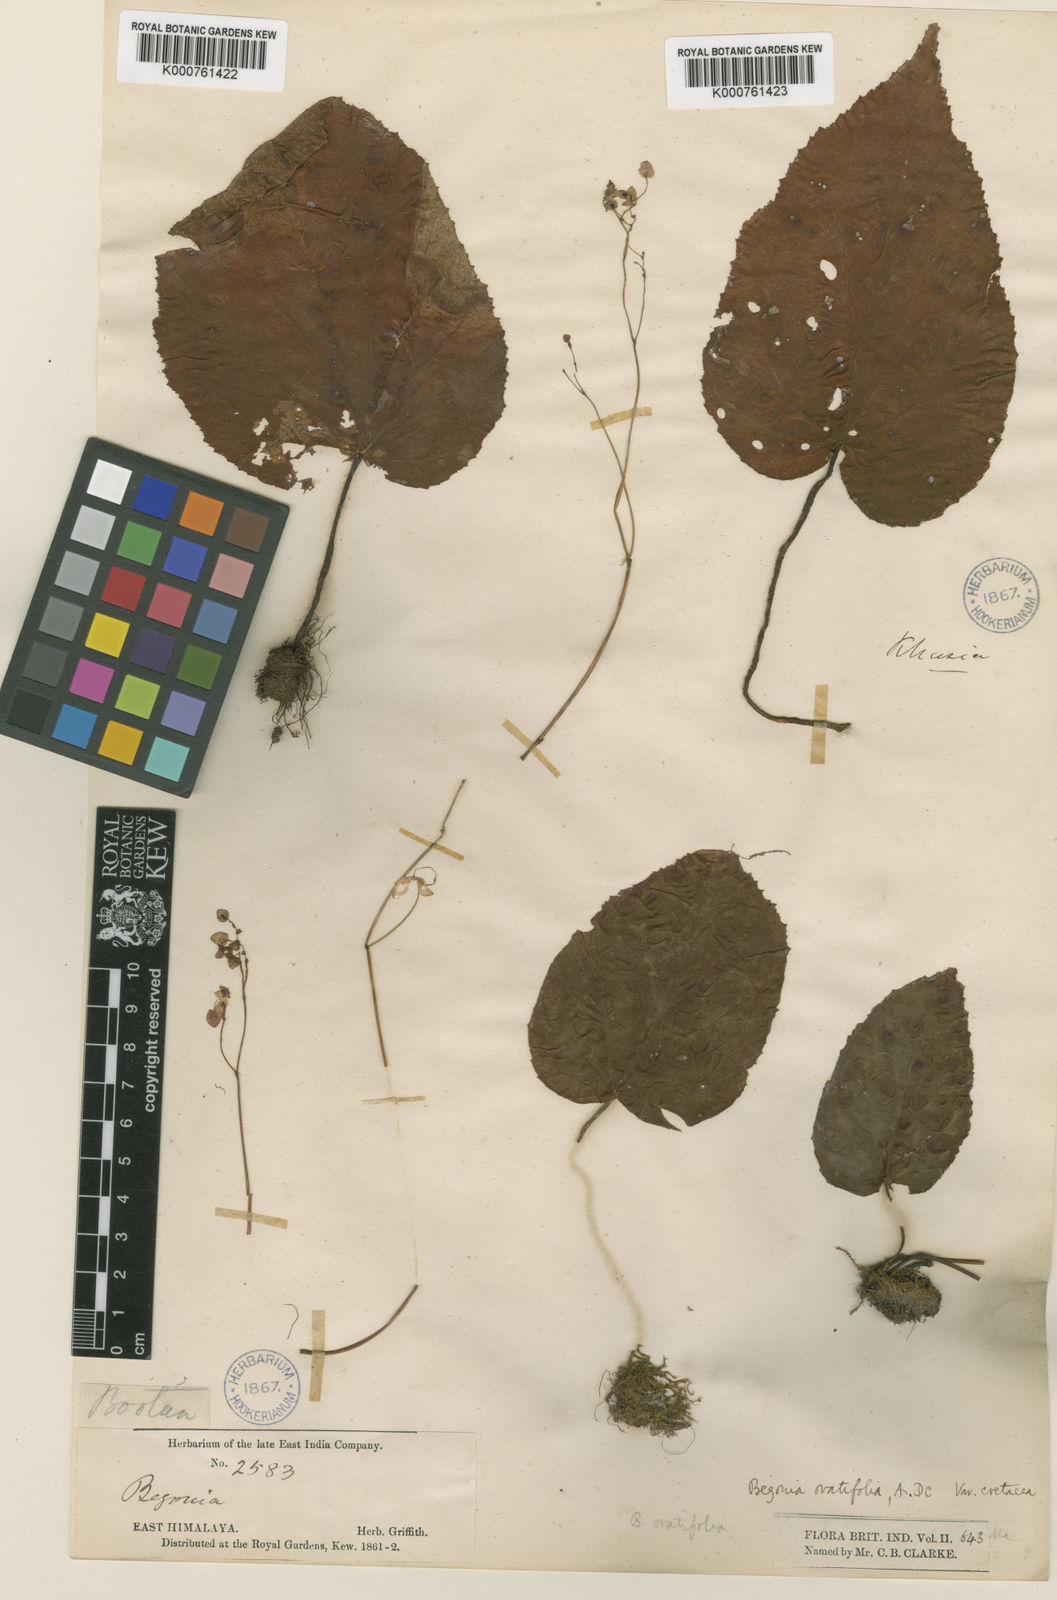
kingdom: Plantae
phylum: Tracheophyta
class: Magnoliopsida
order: Cucurbitales
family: Begoniaceae
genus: Begonia
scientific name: Begonia ovatifolia
